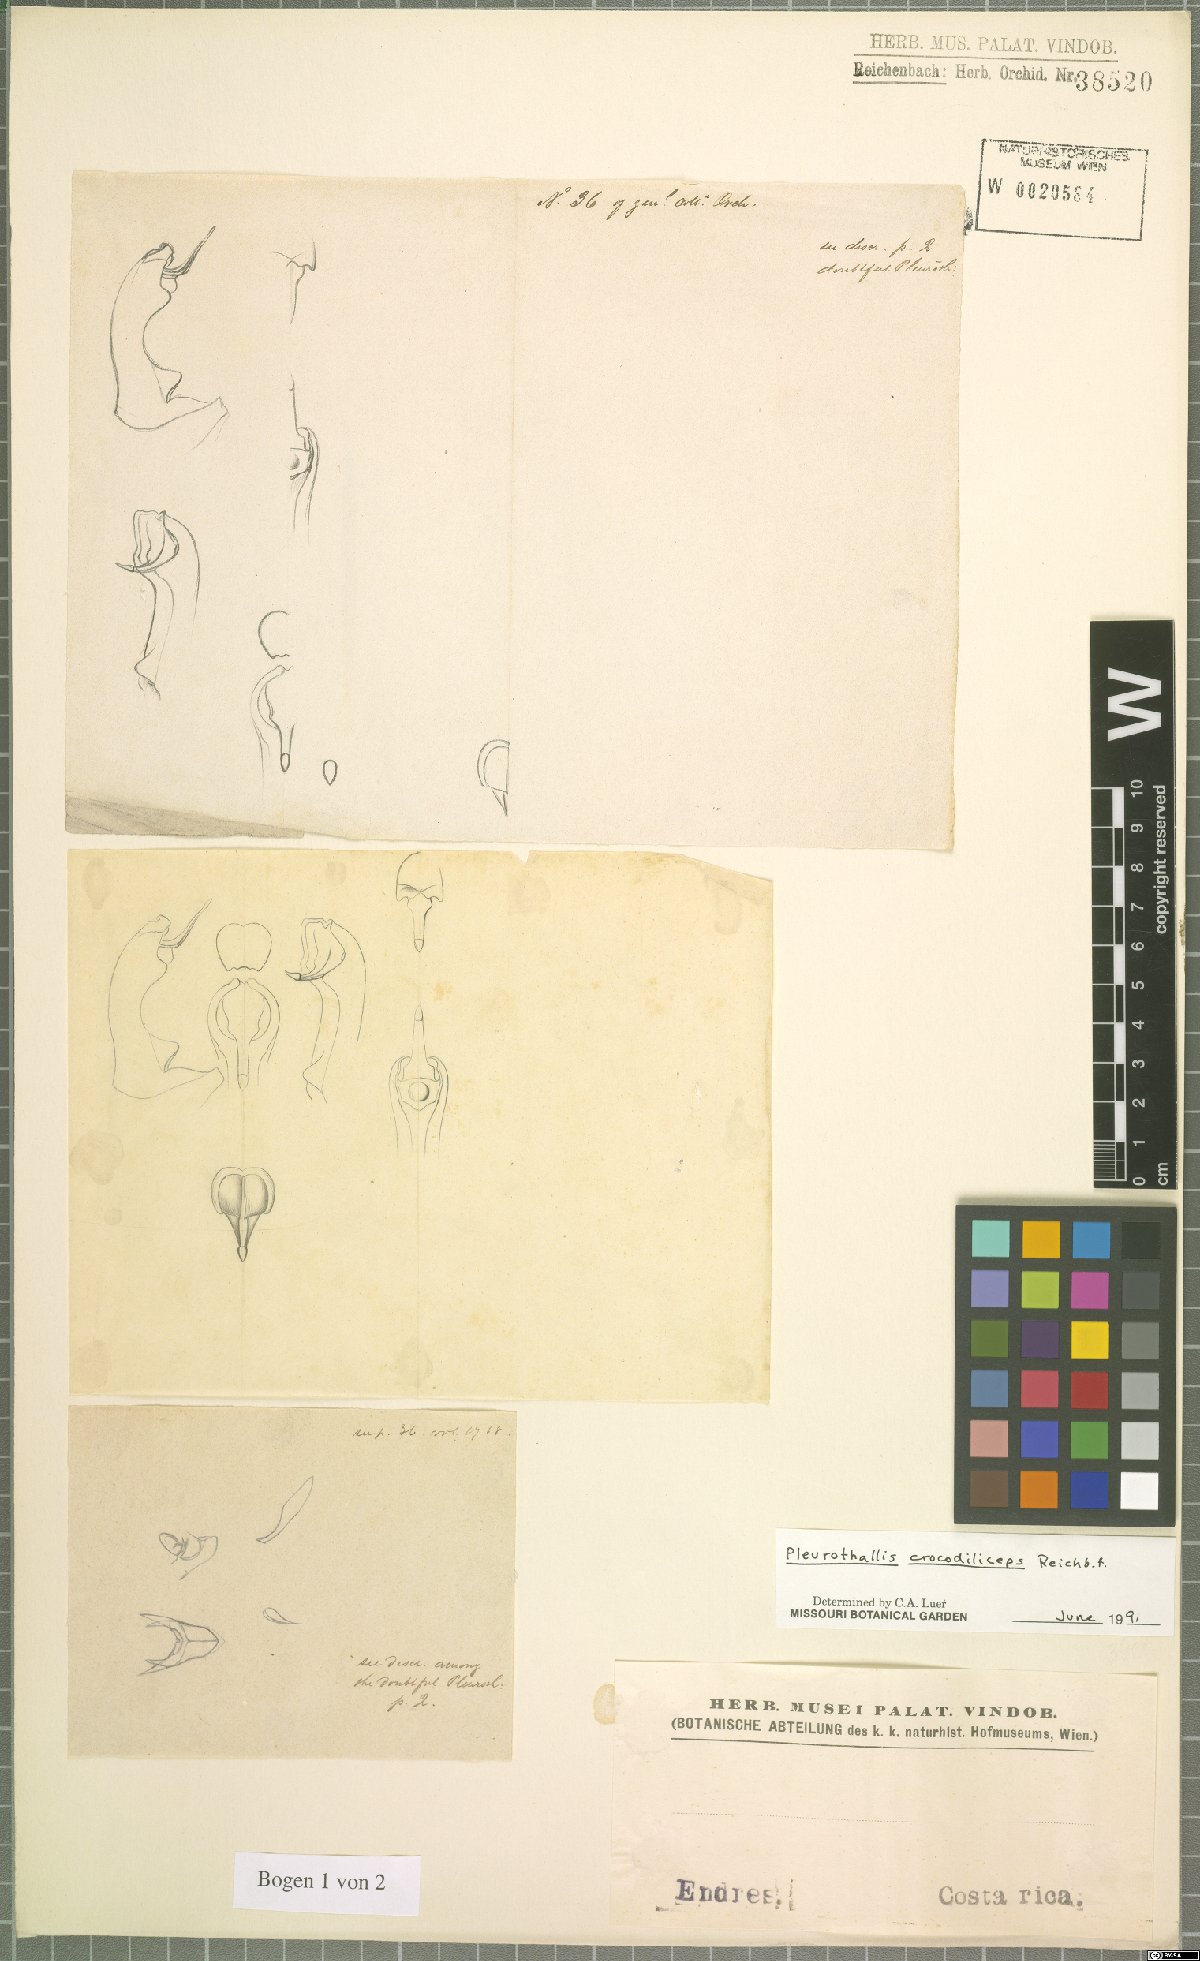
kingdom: Plantae
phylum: Tracheophyta
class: Liliopsida
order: Asparagales
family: Orchidaceae
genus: Pleurothallis
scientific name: Pleurothallis crocodiliceps
